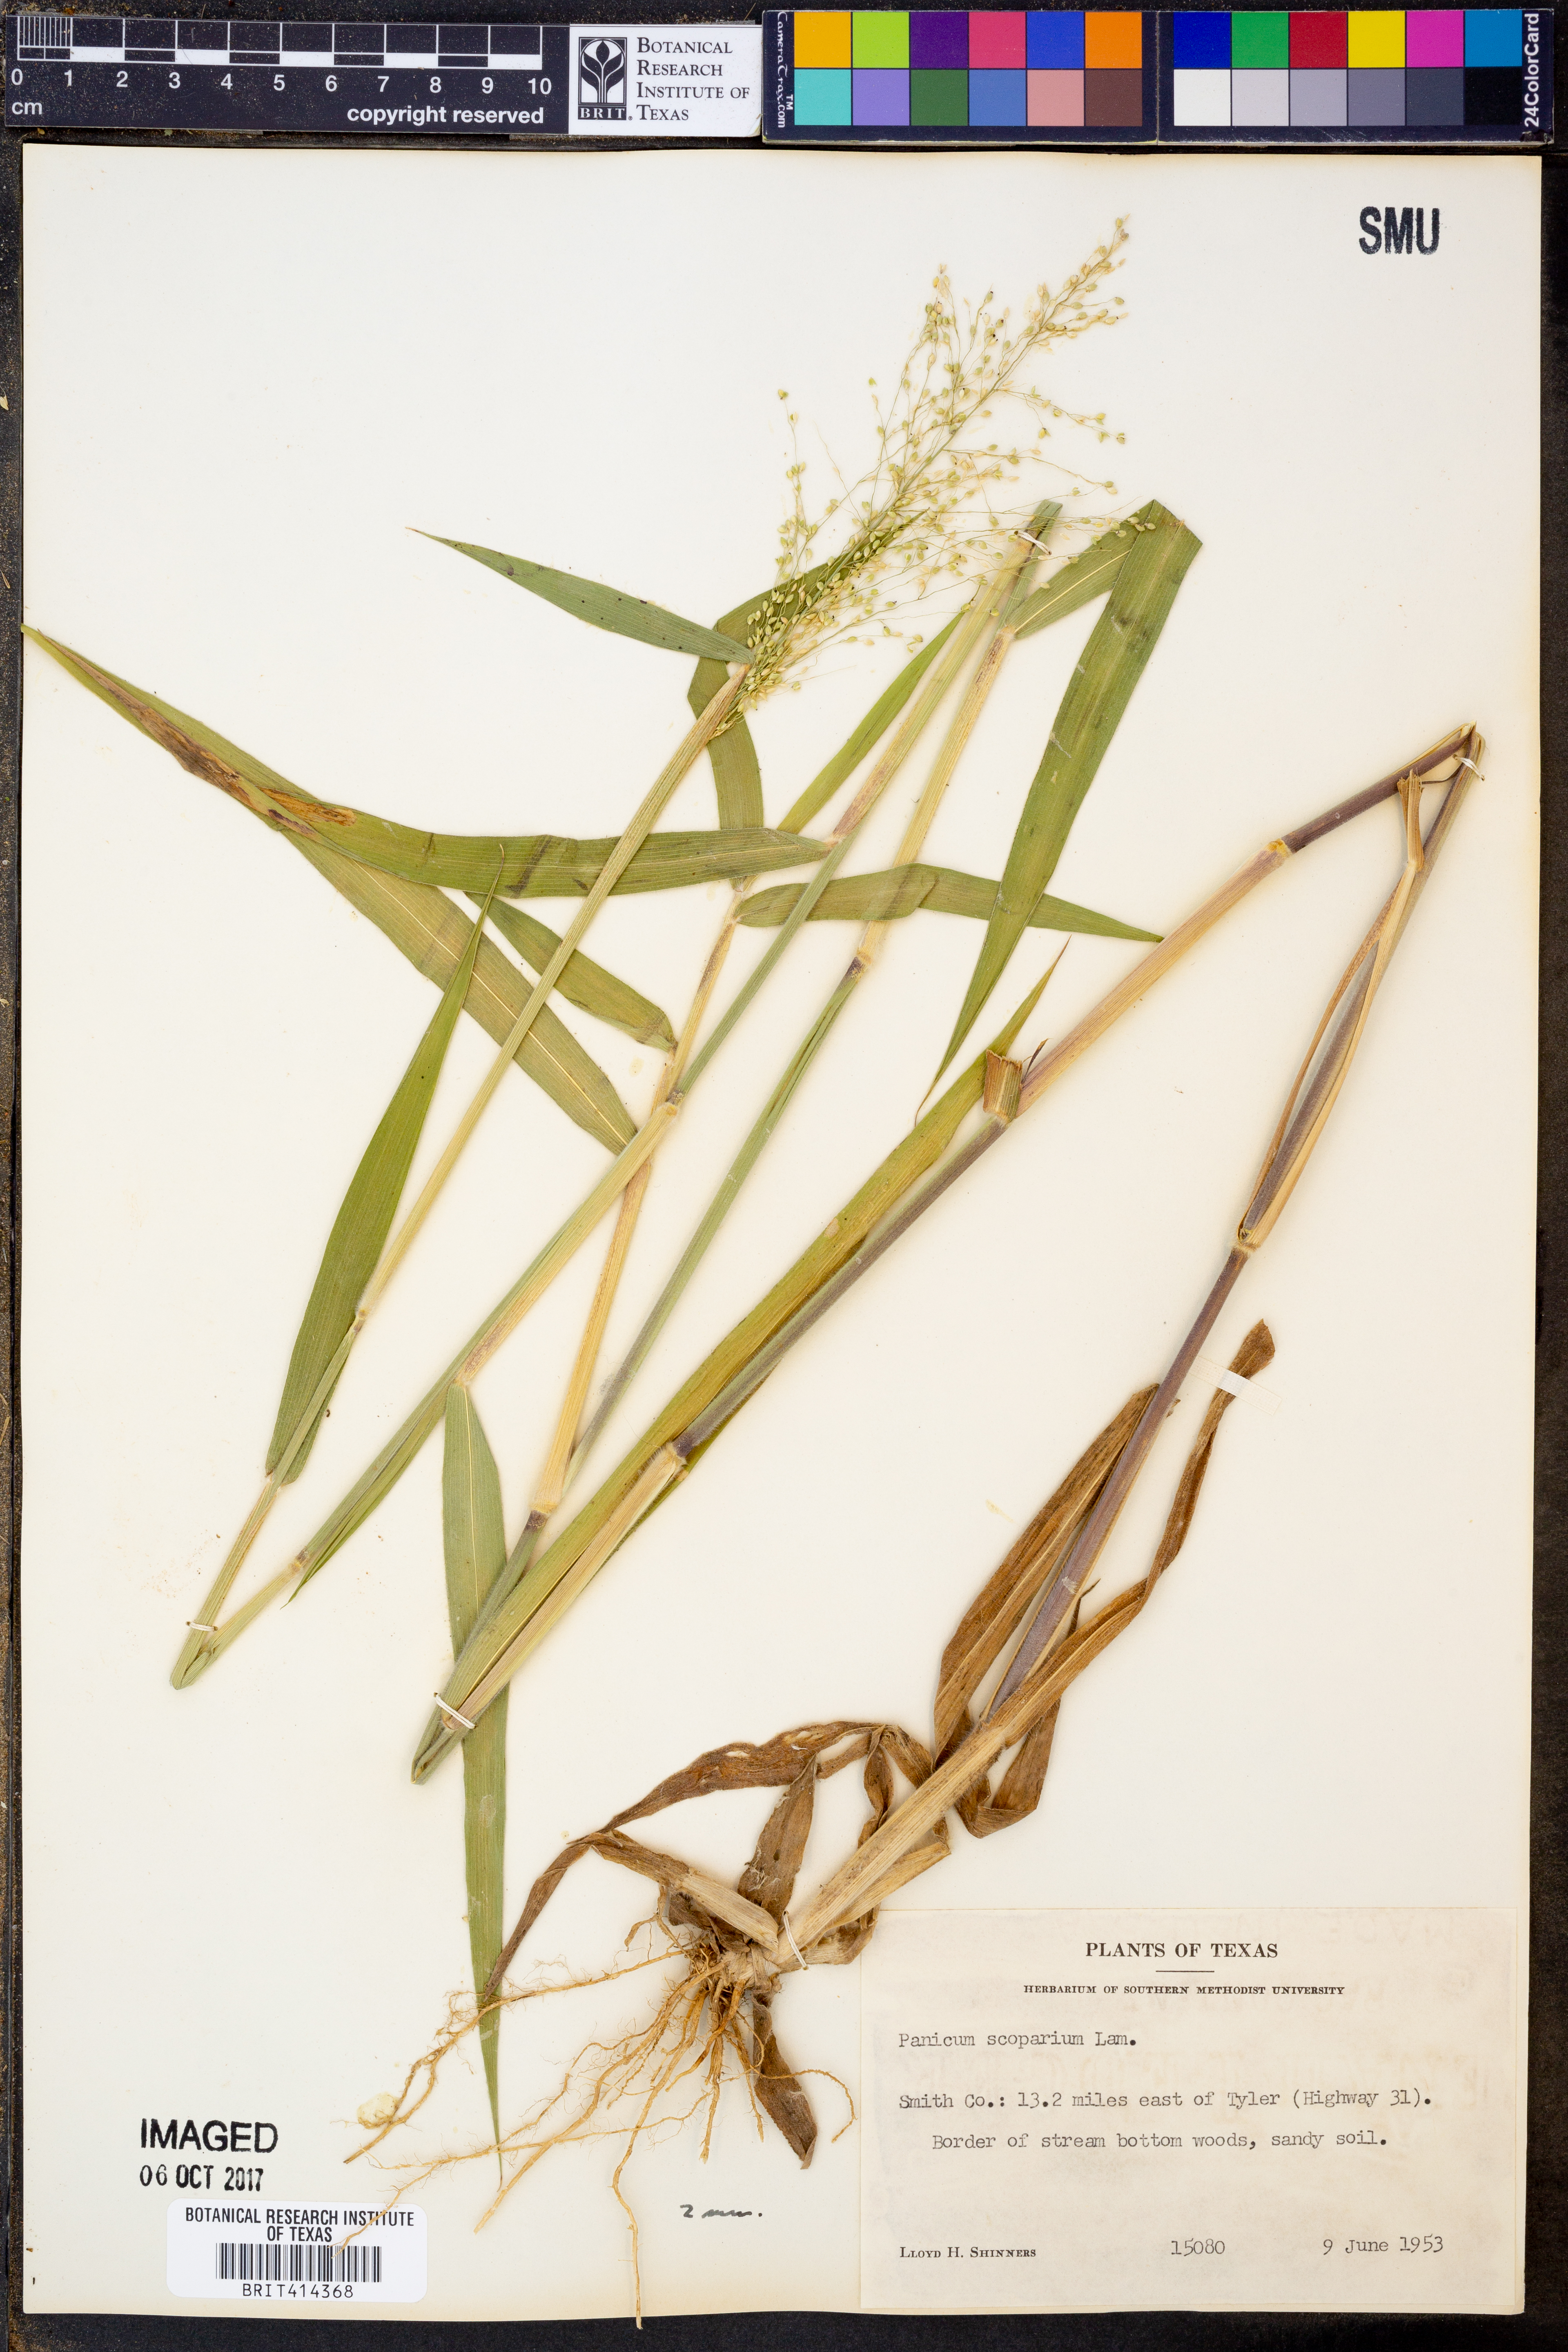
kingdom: Plantae
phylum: Tracheophyta
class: Liliopsida
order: Poales
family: Poaceae
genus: Dichanthelium
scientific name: Dichanthelium scribnerianum
